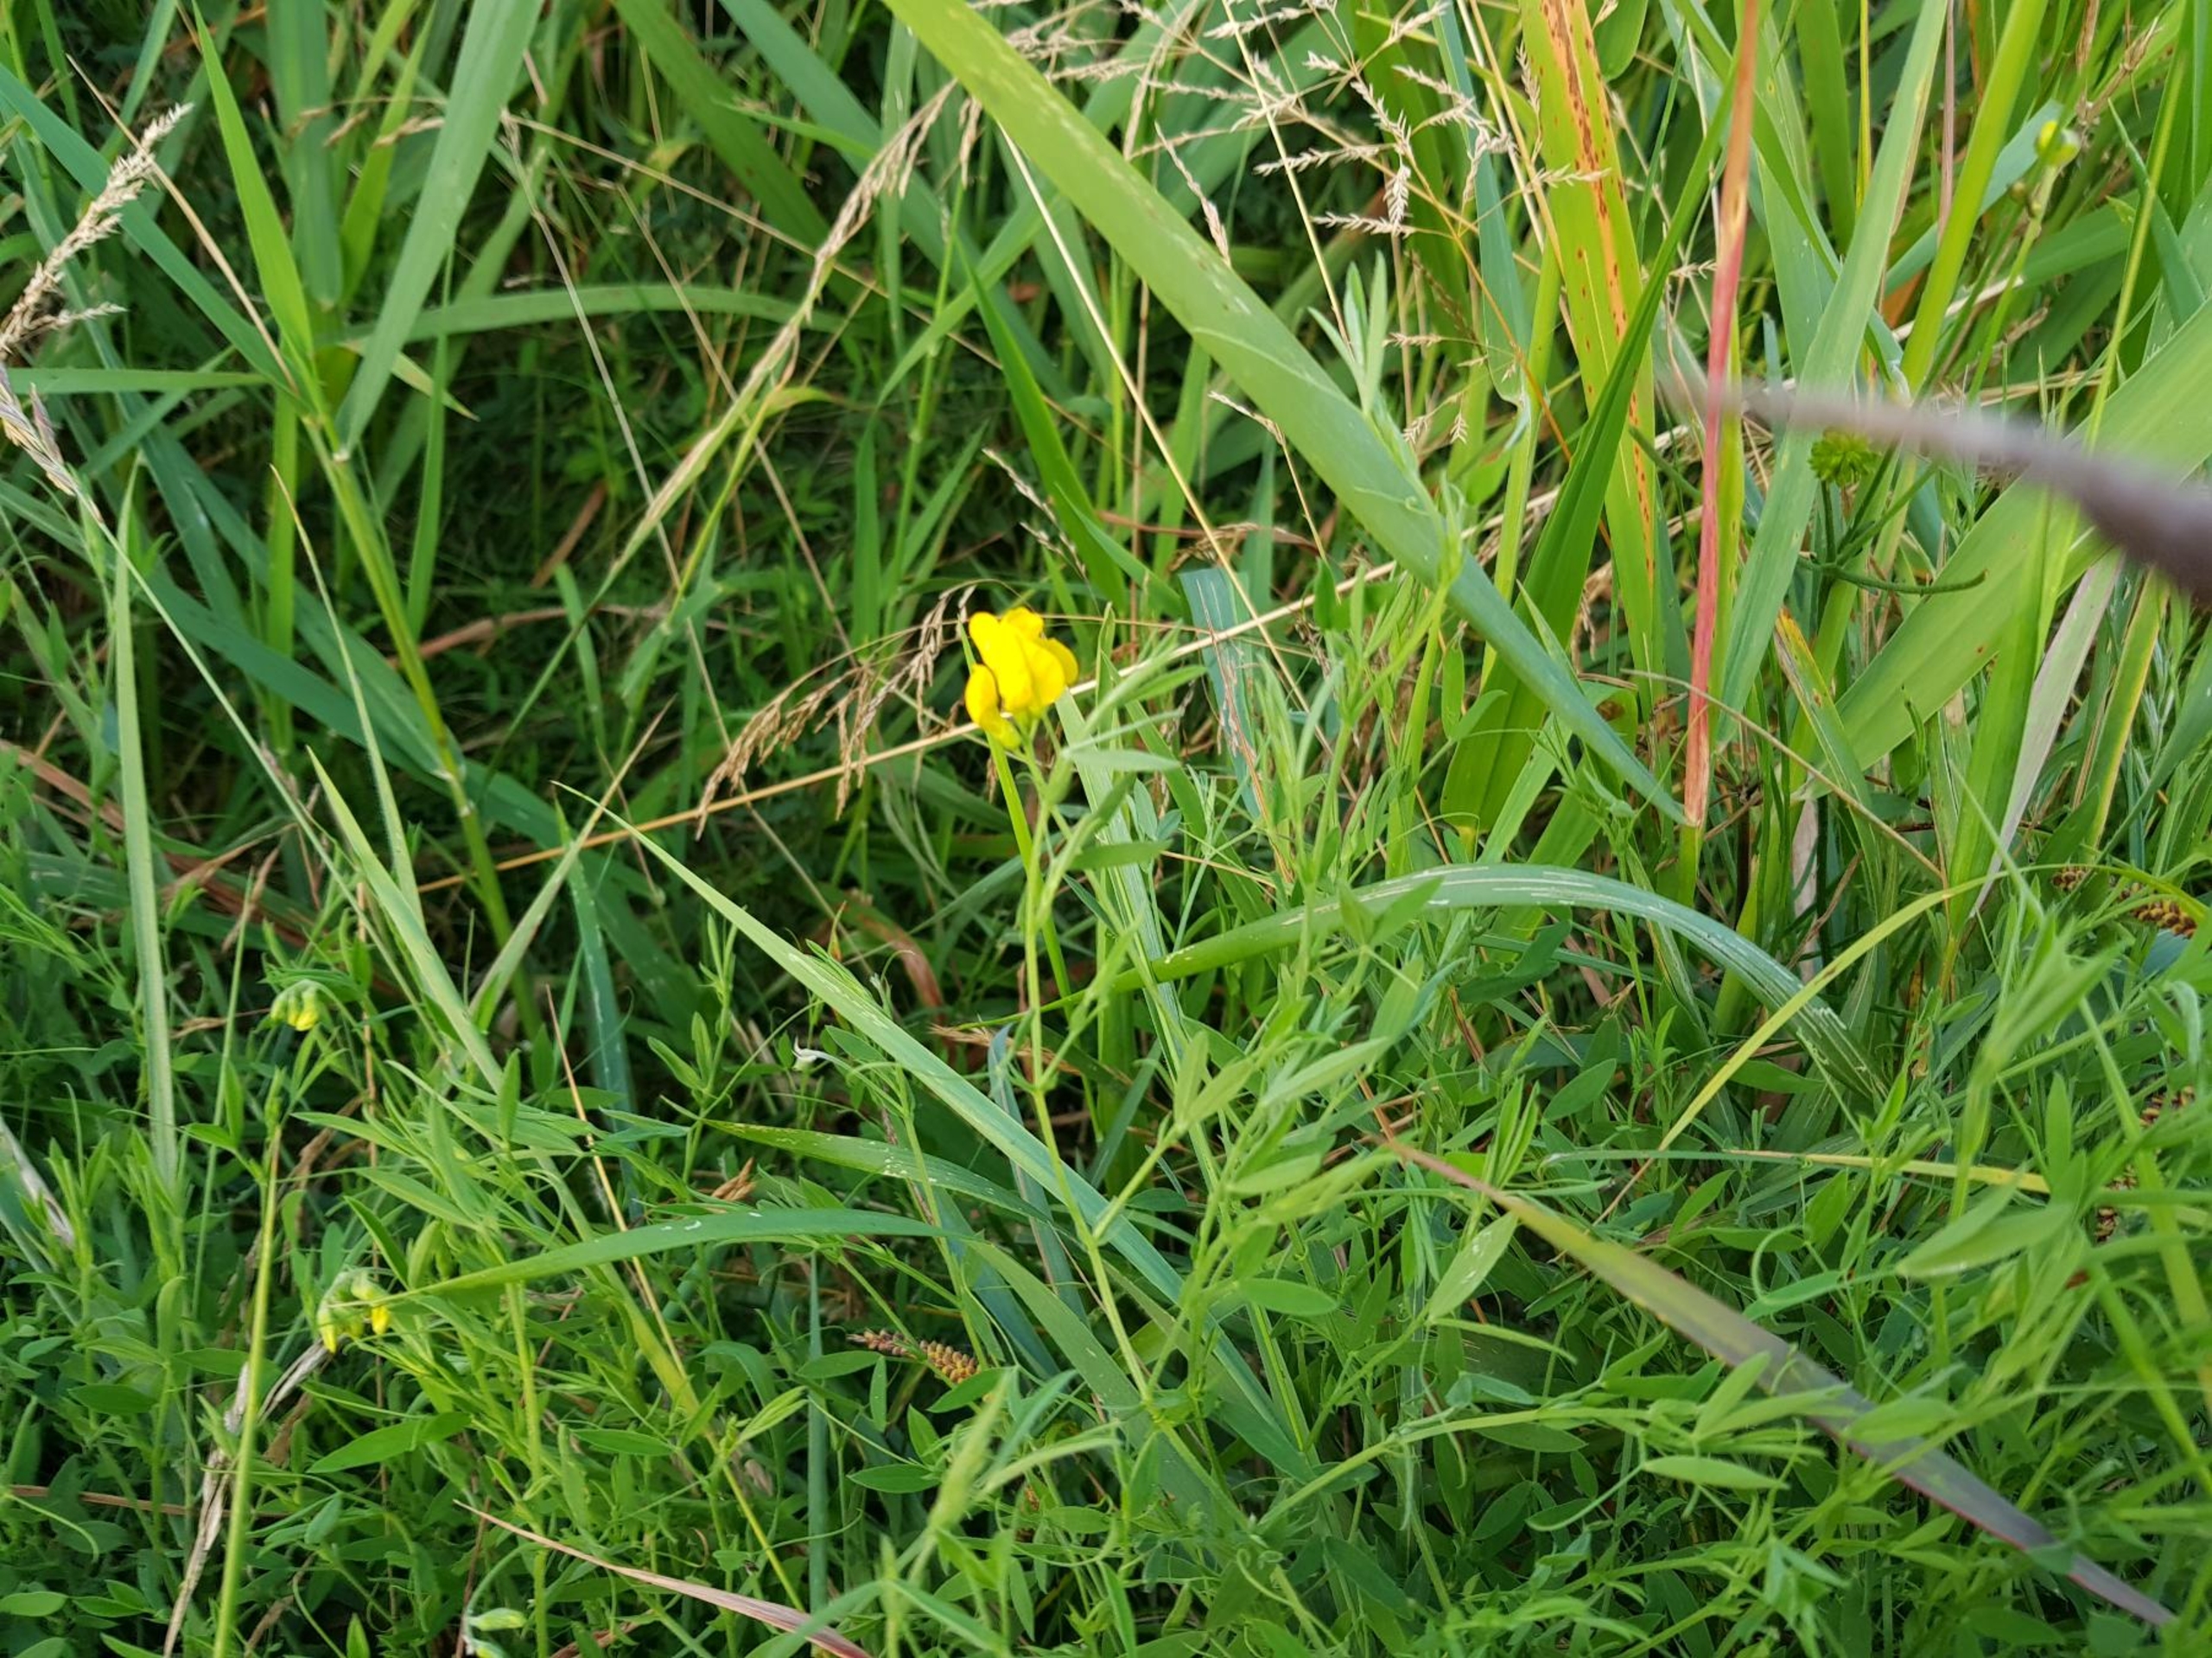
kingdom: Plantae
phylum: Tracheophyta
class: Magnoliopsida
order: Fabales
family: Fabaceae
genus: Lathyrus
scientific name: Lathyrus pratensis
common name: Gul fladbælg
